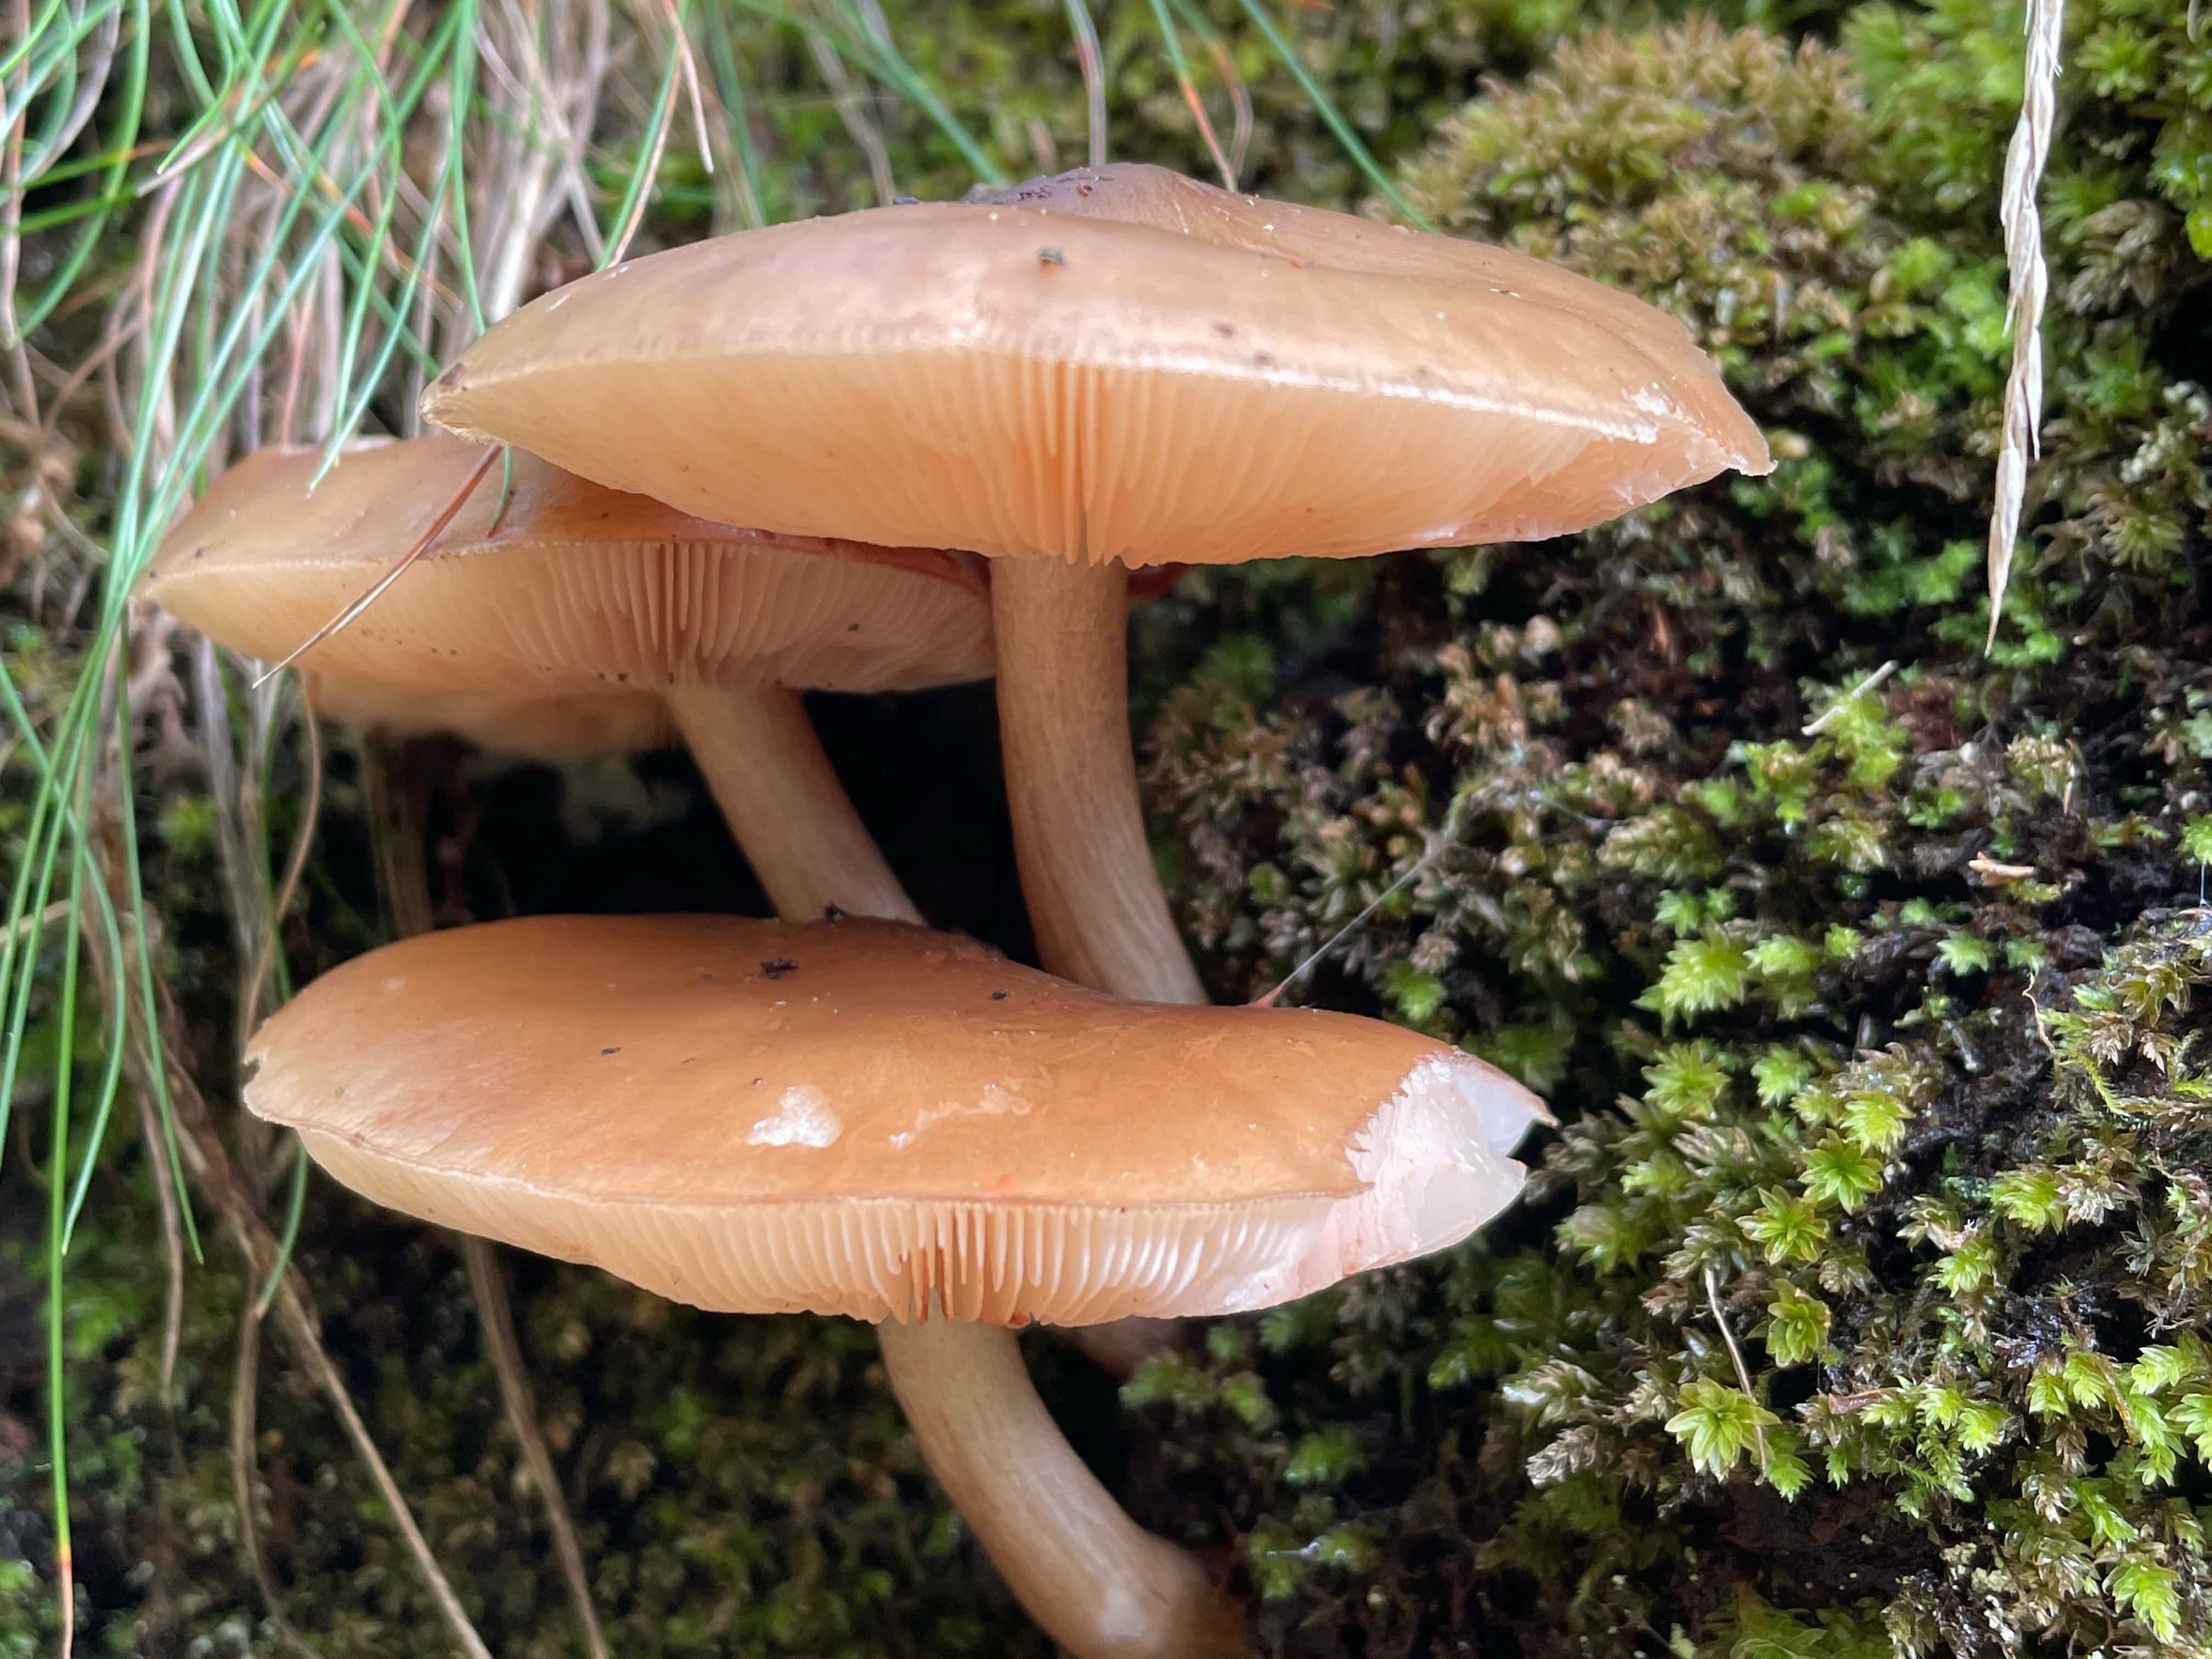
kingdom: Fungi
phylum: Basidiomycota
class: Agaricomycetes
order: Agaricales
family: Pluteaceae
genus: Pluteus
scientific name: Pluteus cervinus
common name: sodfarvet skærmhat
